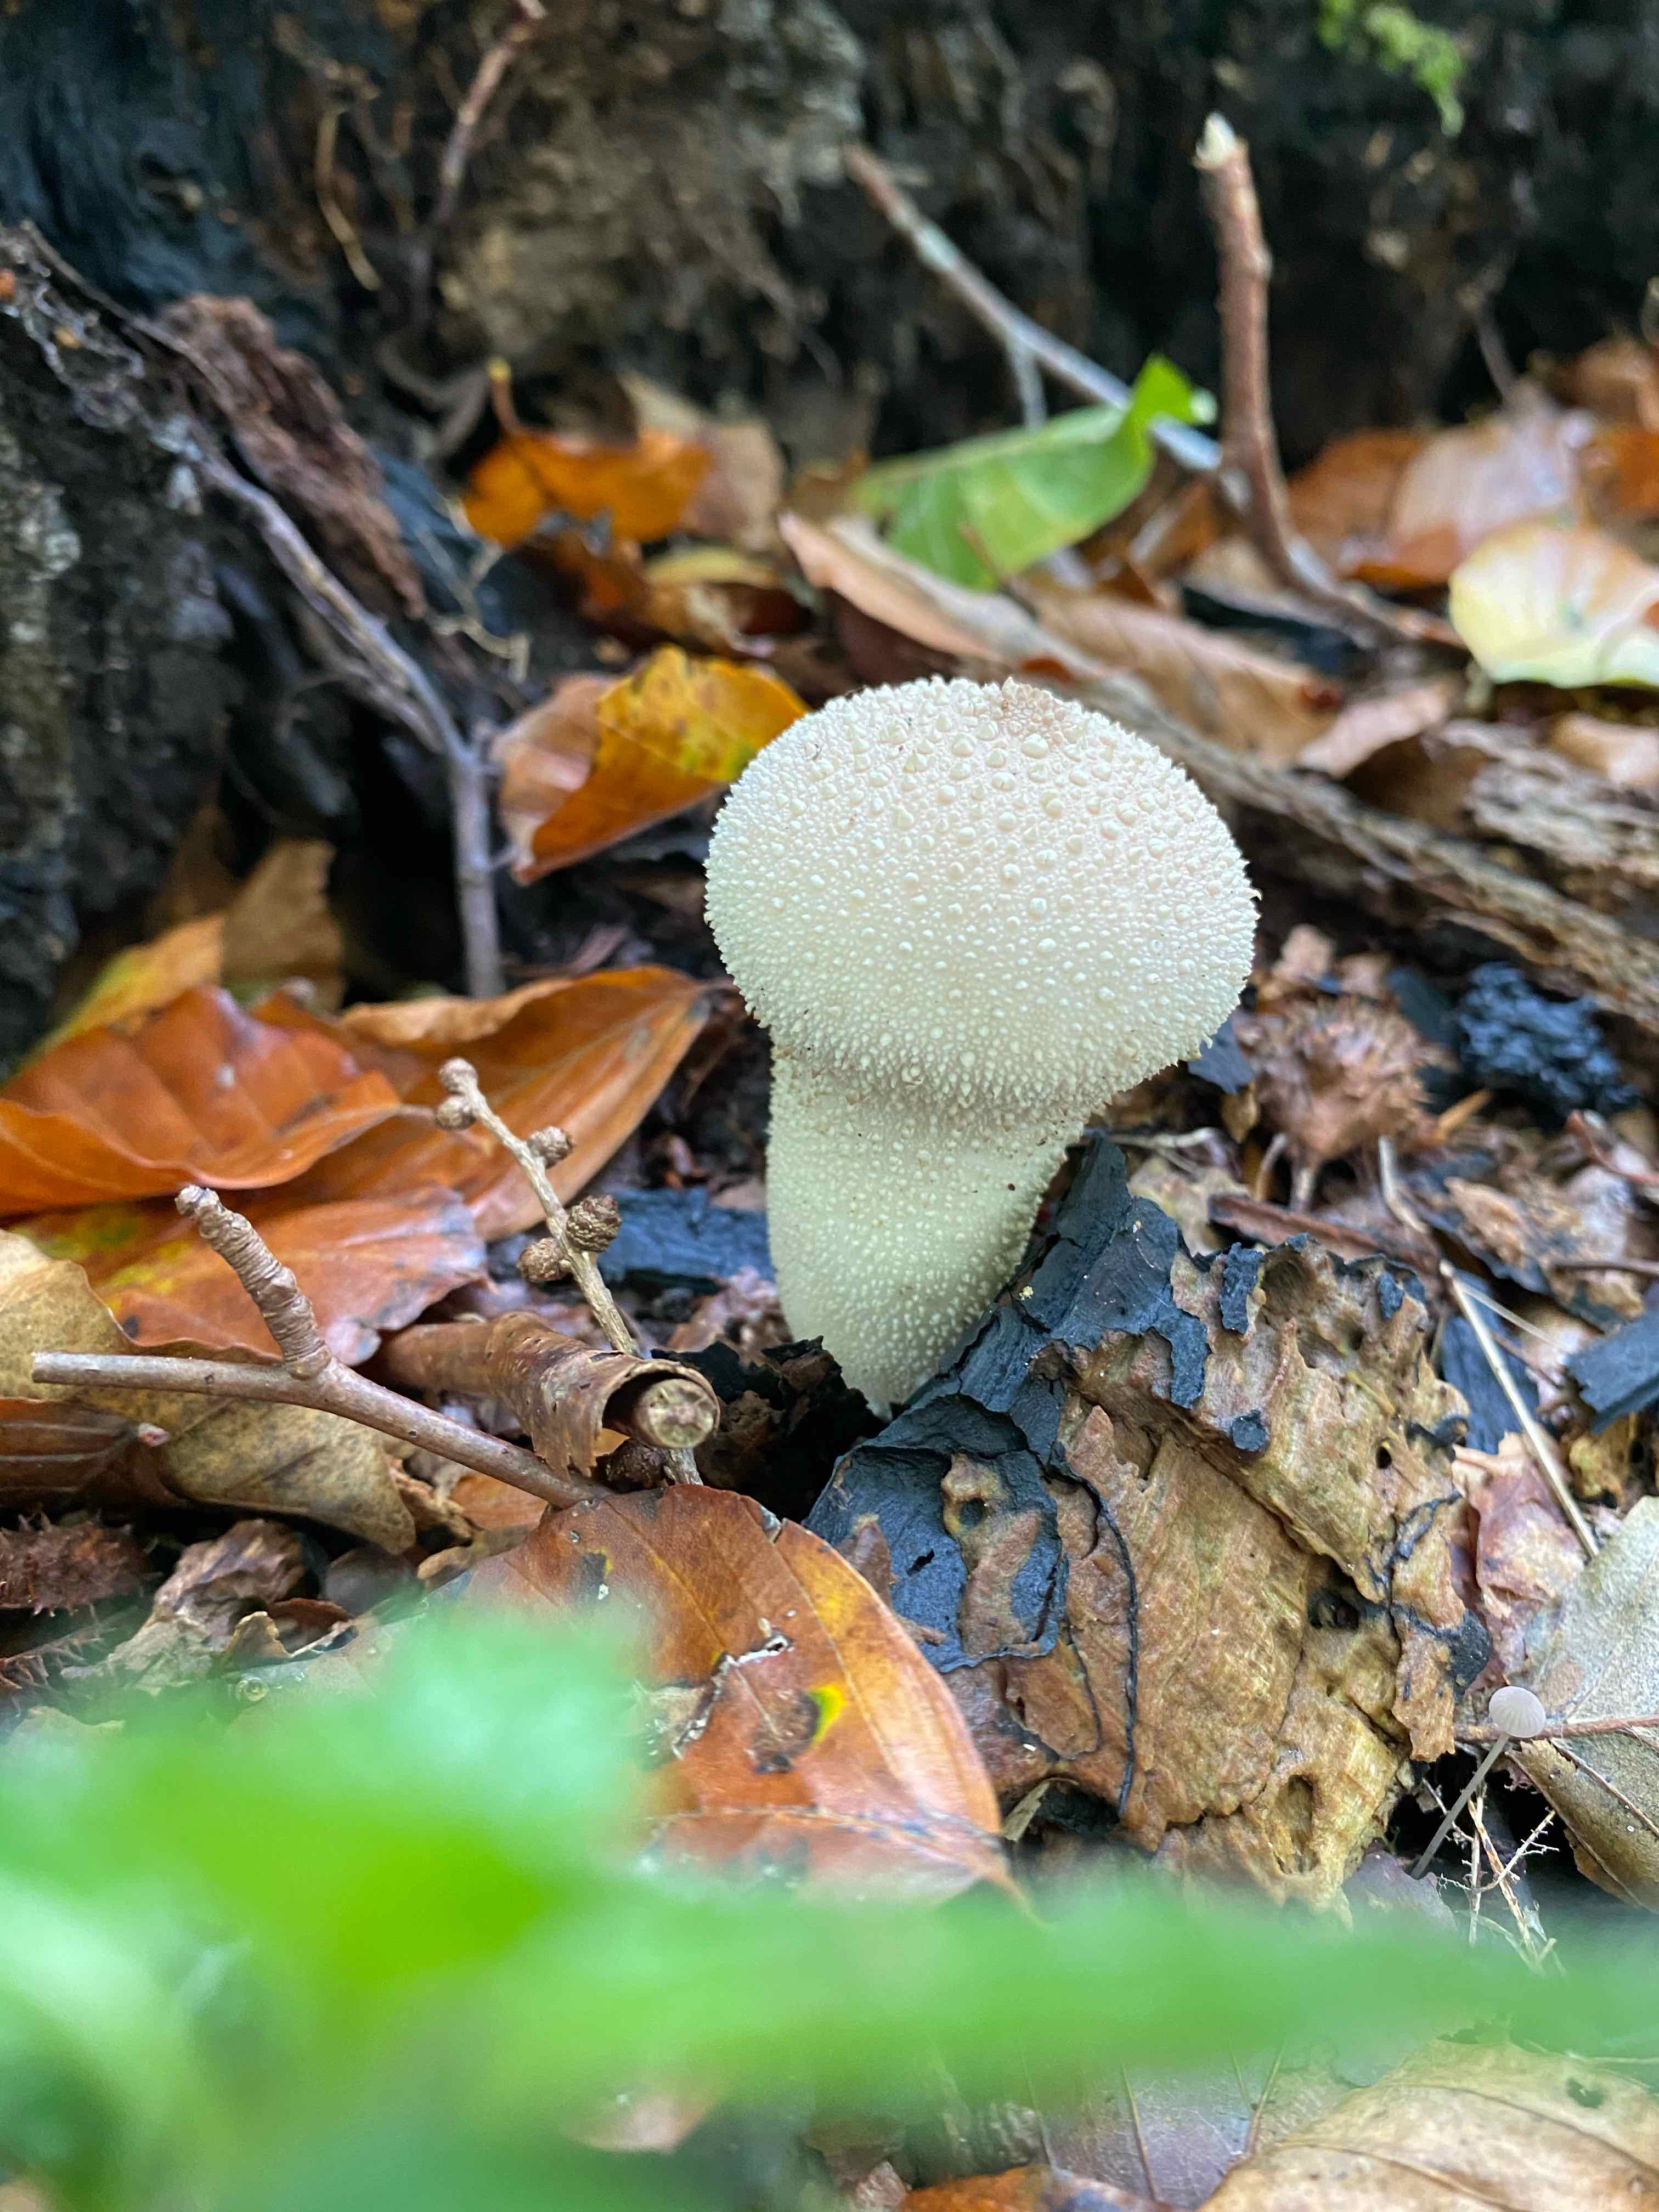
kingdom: Fungi
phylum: Basidiomycota
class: Agaricomycetes
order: Agaricales
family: Lycoperdaceae
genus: Apioperdon
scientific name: Apioperdon pyriforme
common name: pære-støvbold
